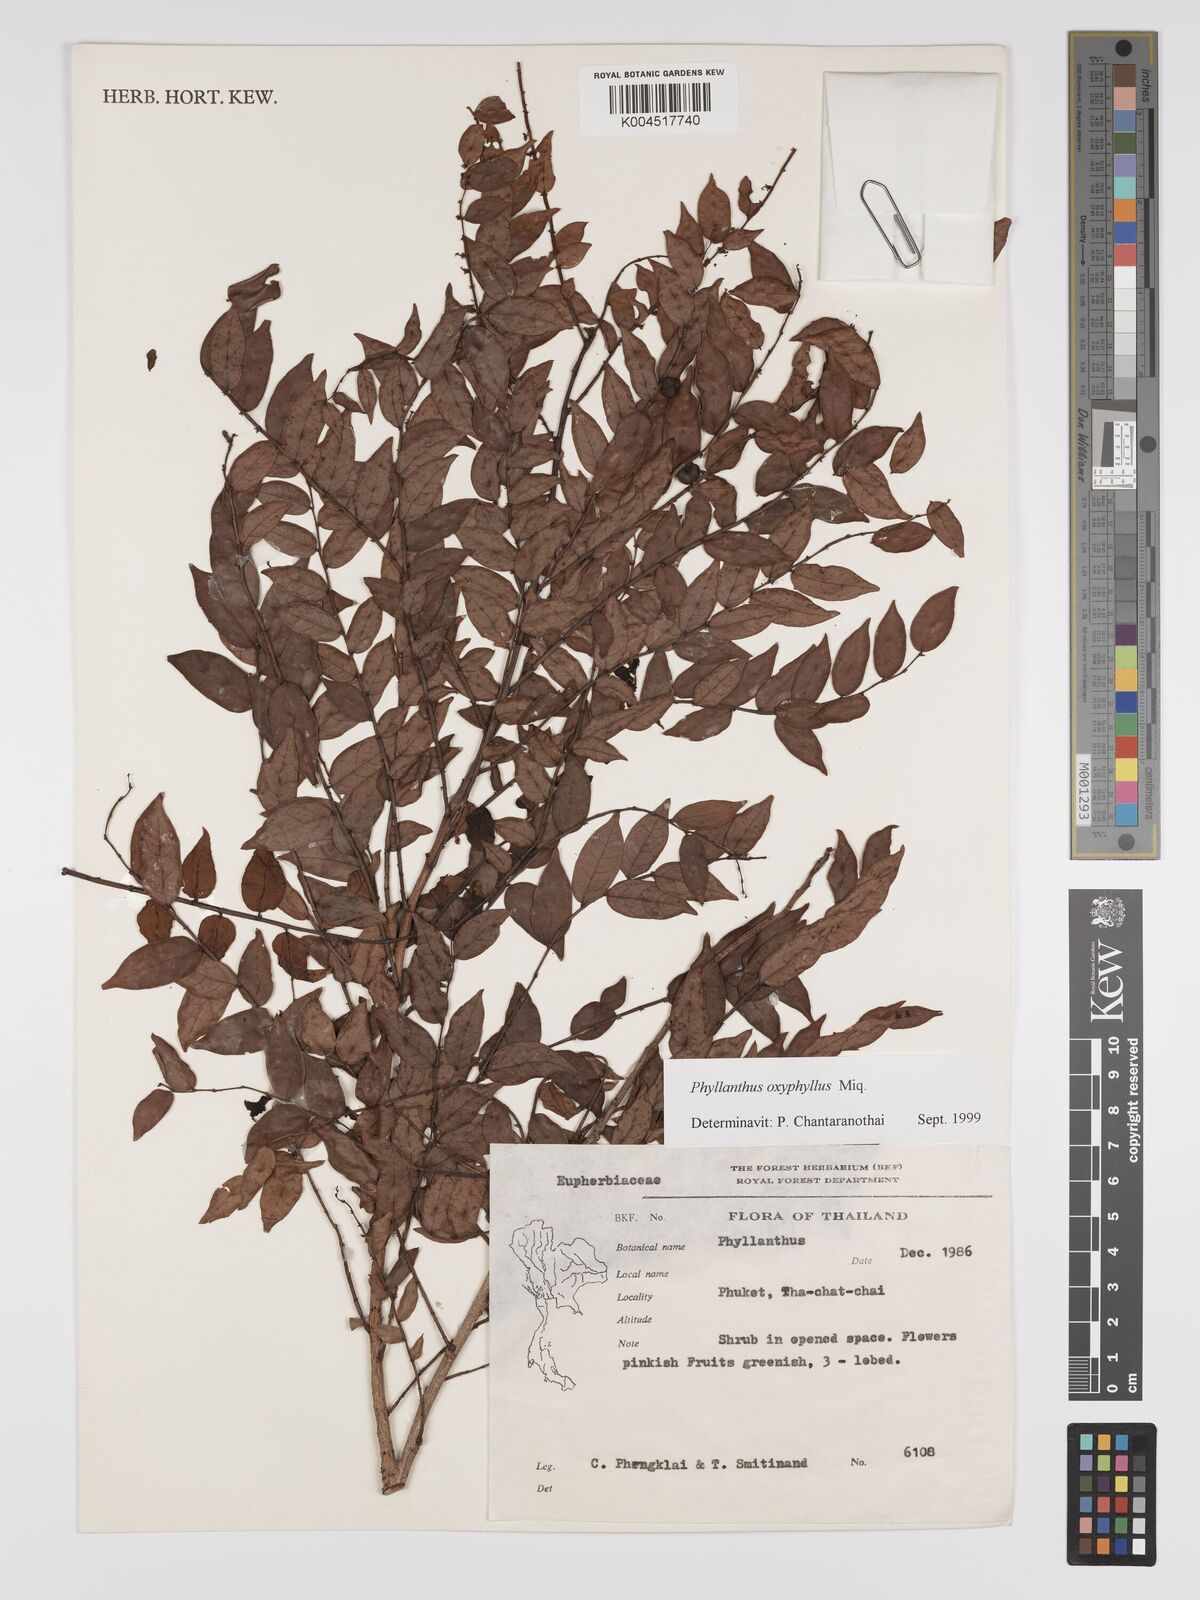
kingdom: Plantae
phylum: Tracheophyta
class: Magnoliopsida
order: Malpighiales
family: Phyllanthaceae
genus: Phyllanthus
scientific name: Phyllanthus
